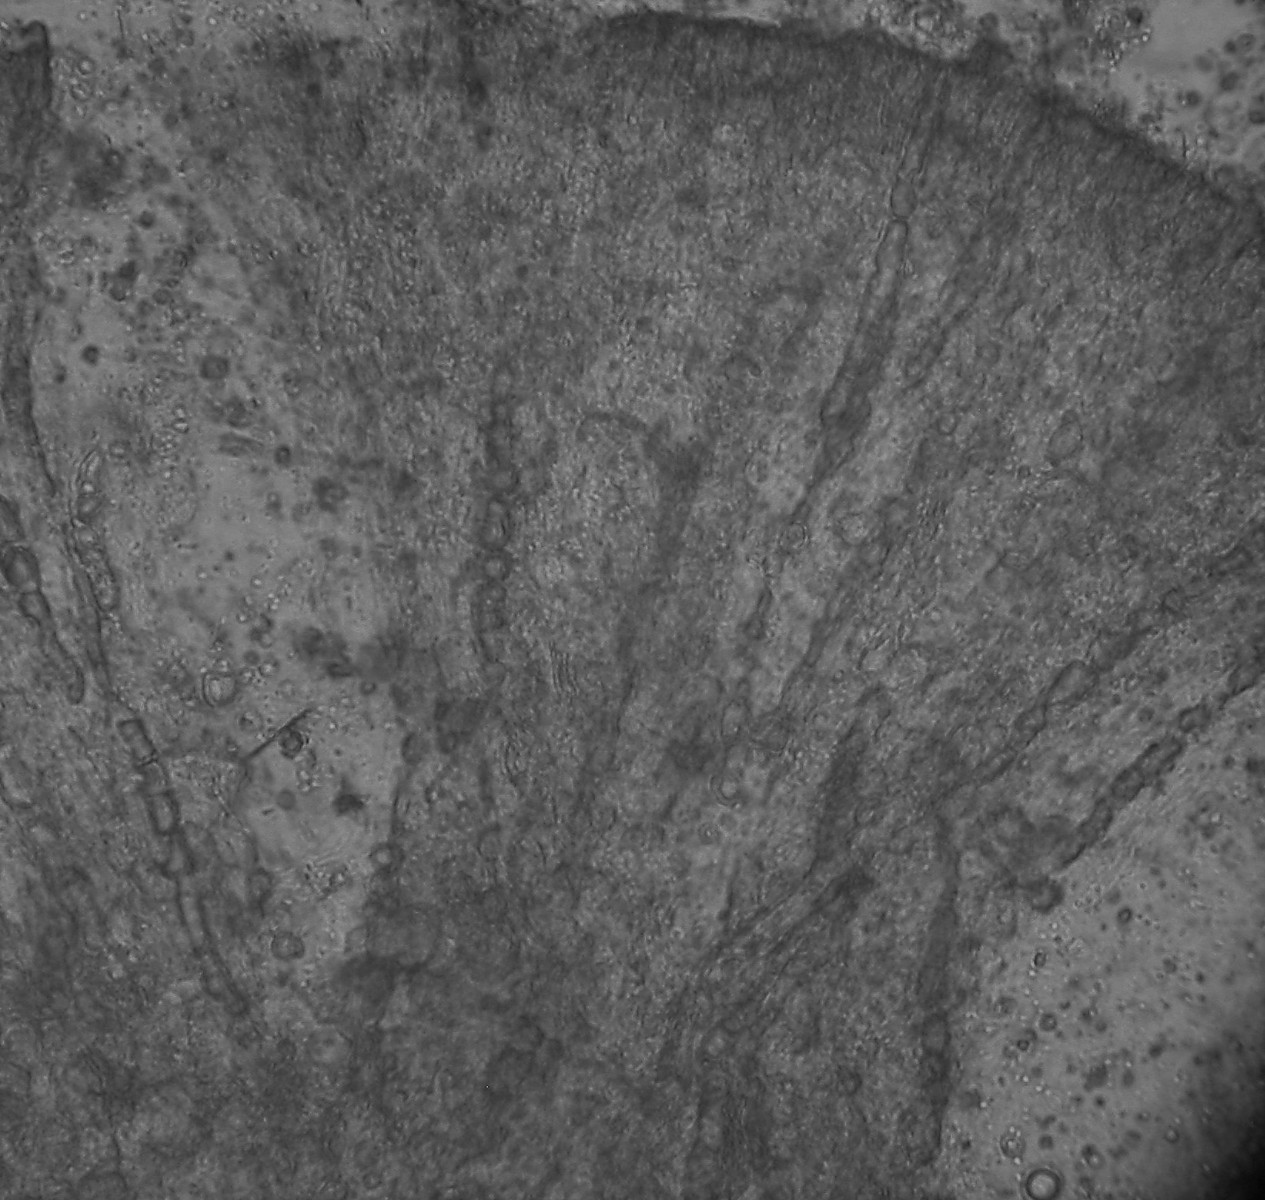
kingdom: Fungi
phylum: Basidiomycota
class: Agaricomycetes
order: Russulales
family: Peniophoraceae
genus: Gloiothele
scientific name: Gloiothele lactescens
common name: bitter olieskind
